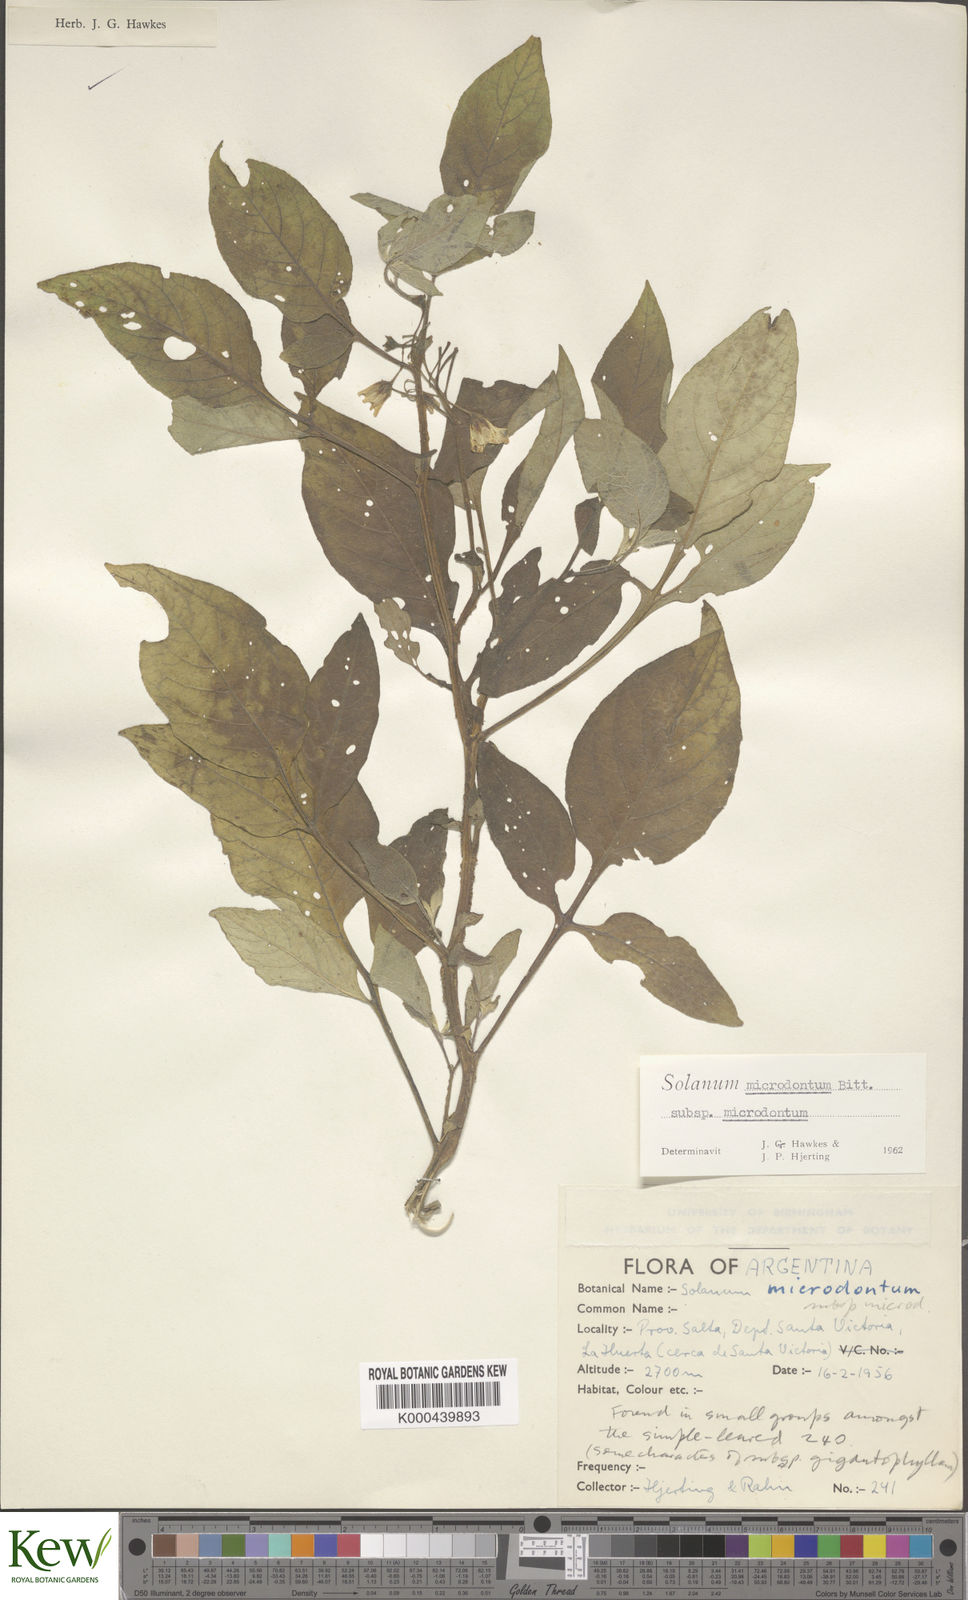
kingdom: Plantae
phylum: Tracheophyta
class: Magnoliopsida
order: Solanales
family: Solanaceae
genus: Solanum
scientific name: Solanum microdontum
